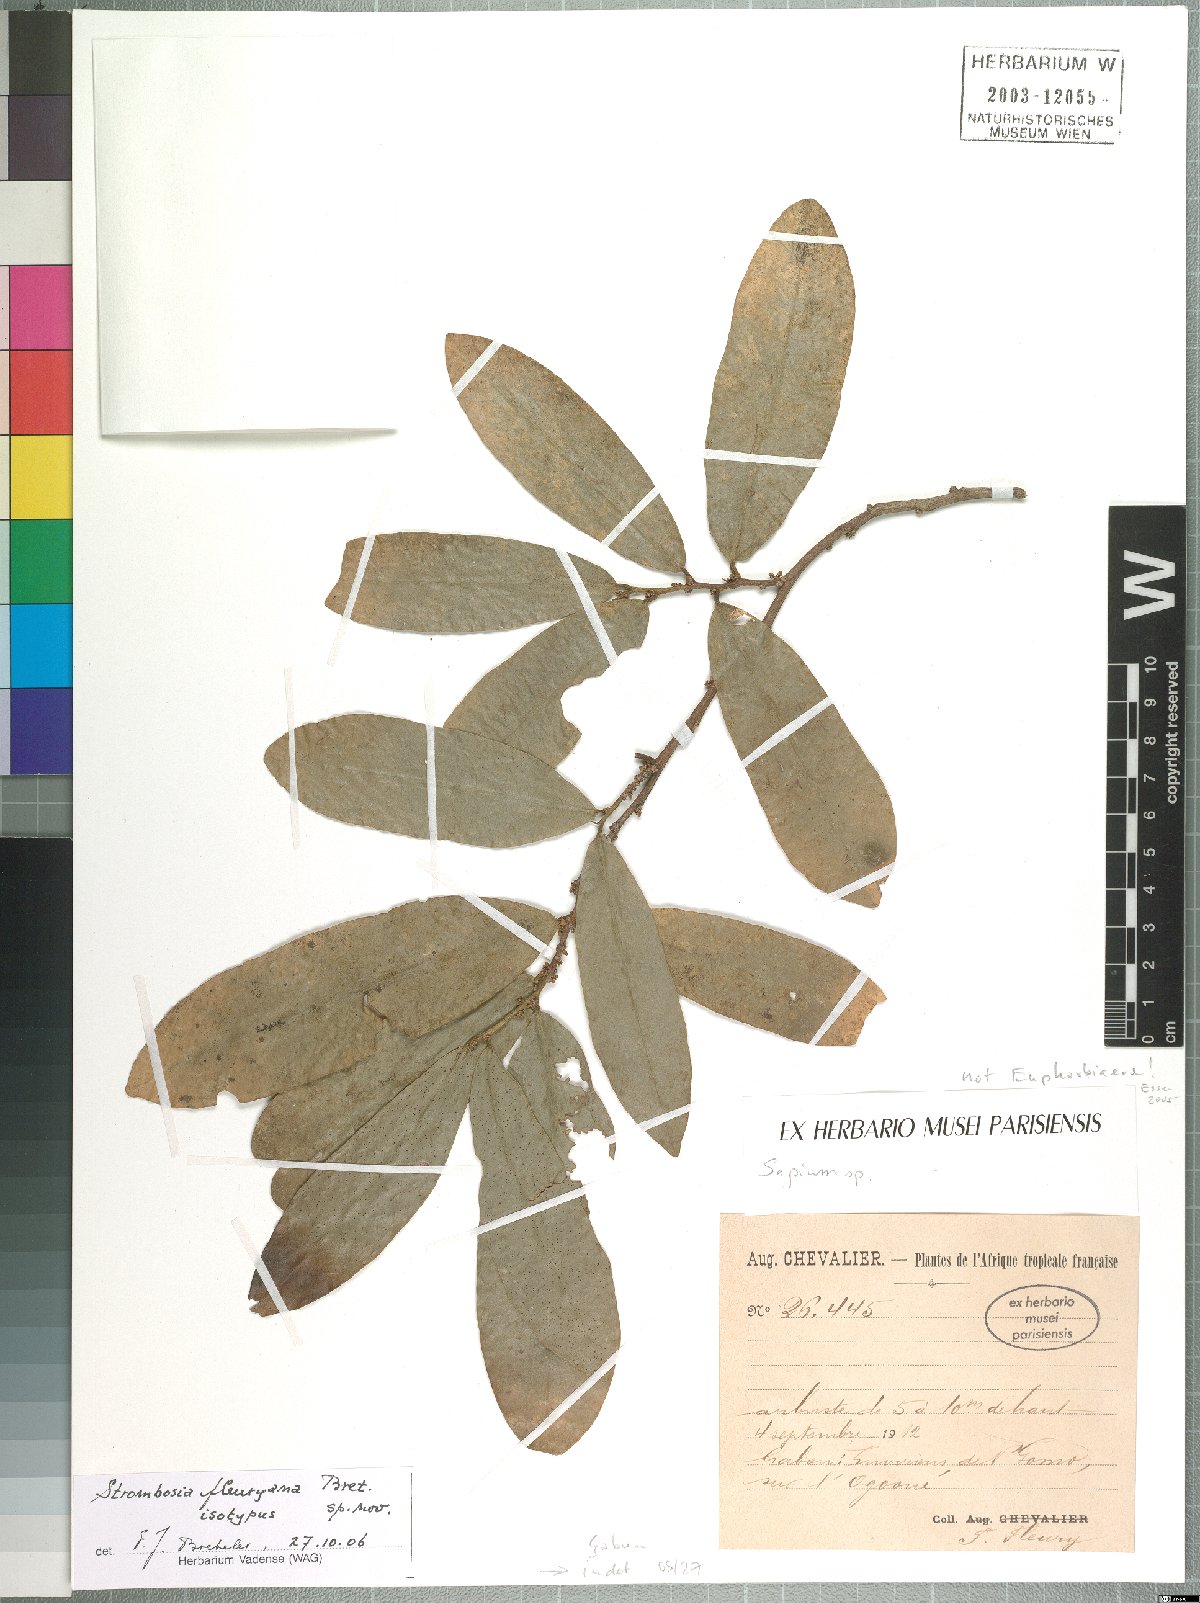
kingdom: Plantae
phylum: Tracheophyta
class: Magnoliopsida
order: Santalales
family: Strombosiaceae
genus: Strombosia
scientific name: Strombosia fleuryana
